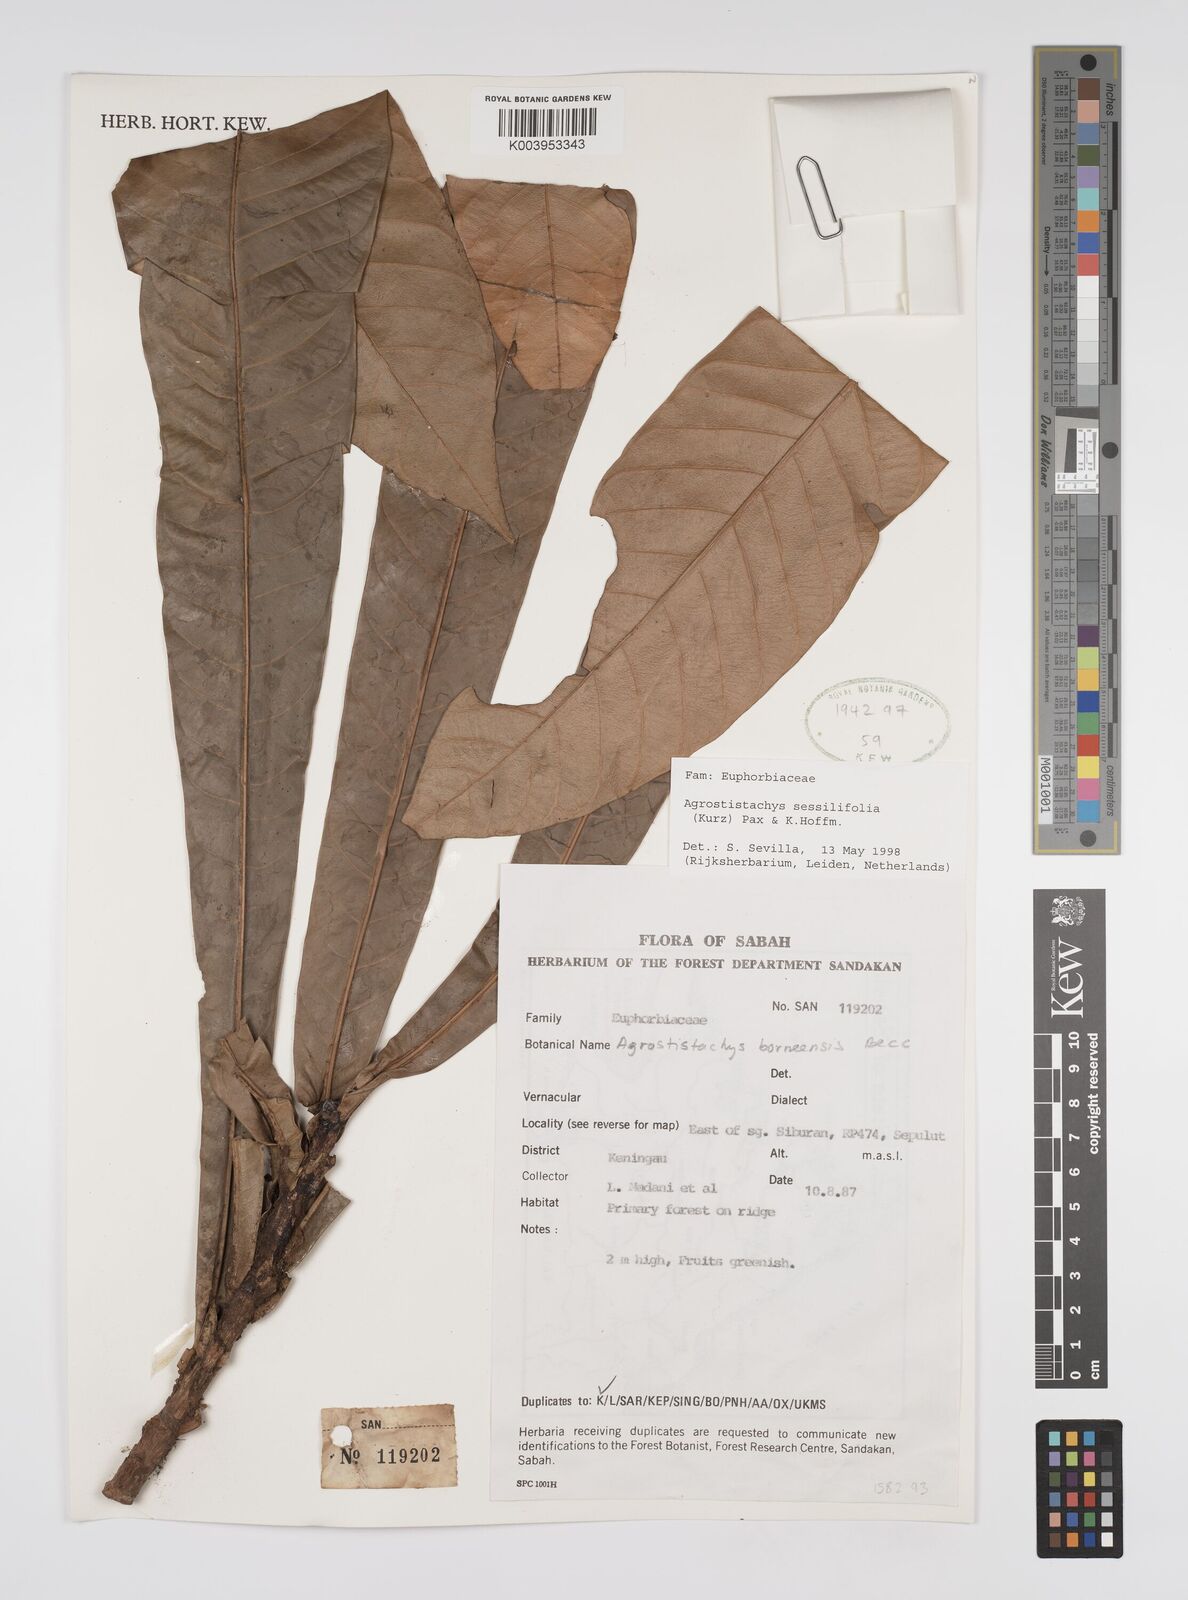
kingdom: Plantae
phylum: Tracheophyta
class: Magnoliopsida
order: Malpighiales
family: Euphorbiaceae
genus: Agrostistachys
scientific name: Agrostistachys sessilifolia
